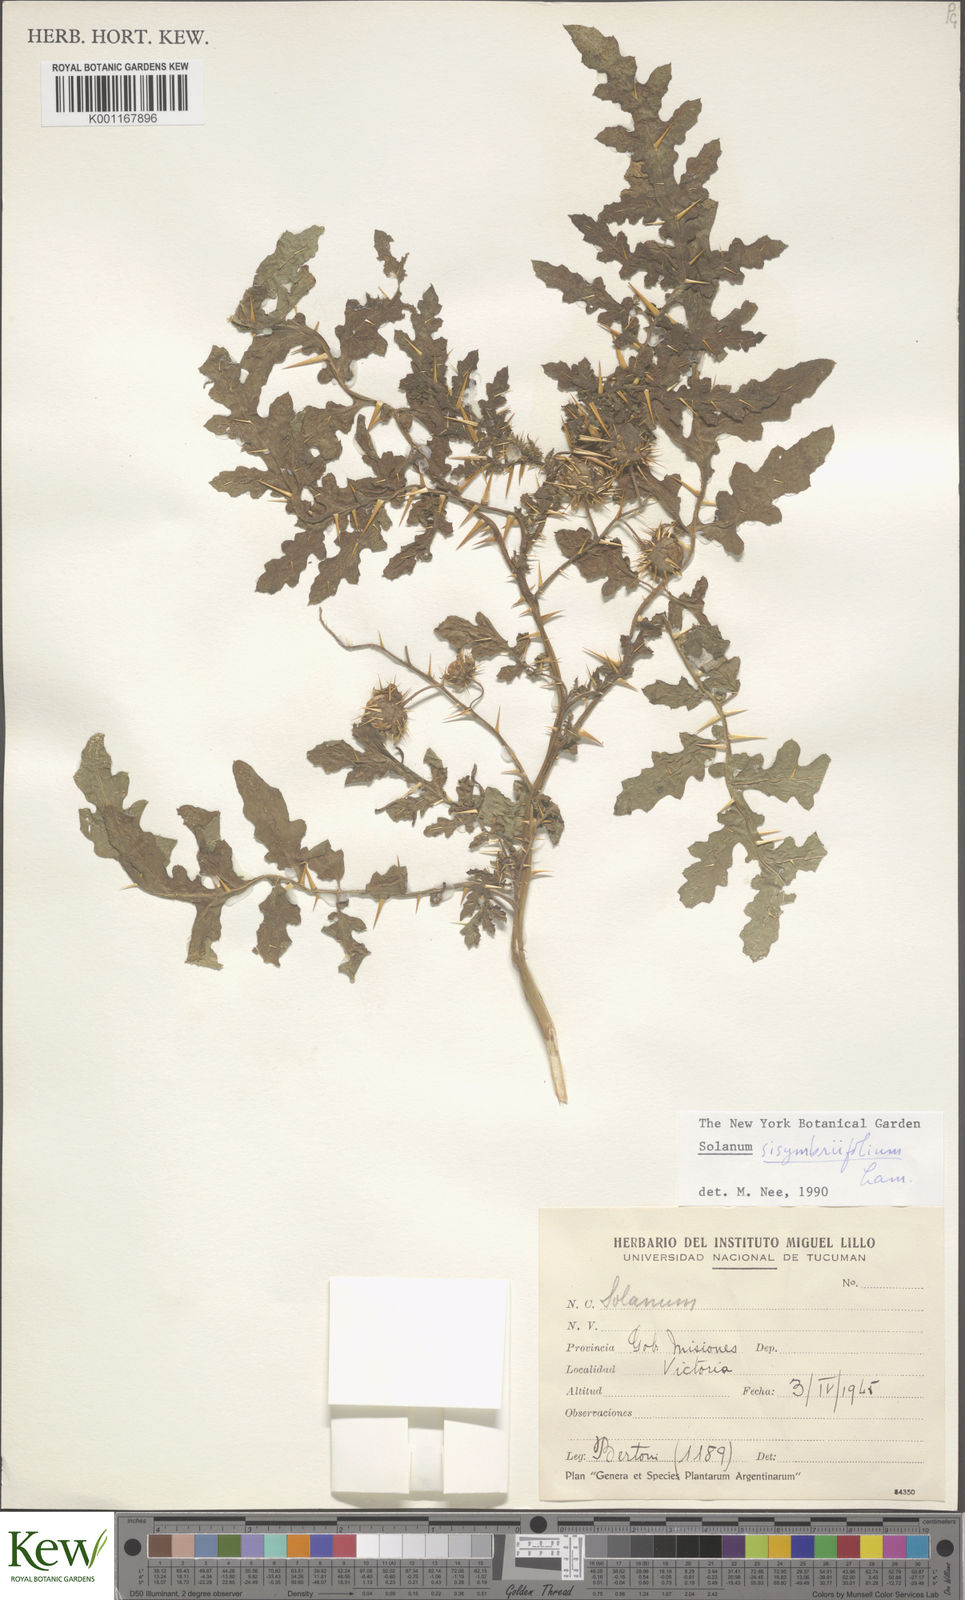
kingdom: Plantae
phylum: Tracheophyta
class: Magnoliopsida
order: Solanales
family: Solanaceae
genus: Solanum
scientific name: Solanum sisymbriifolium
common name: Red buffalo-bur
